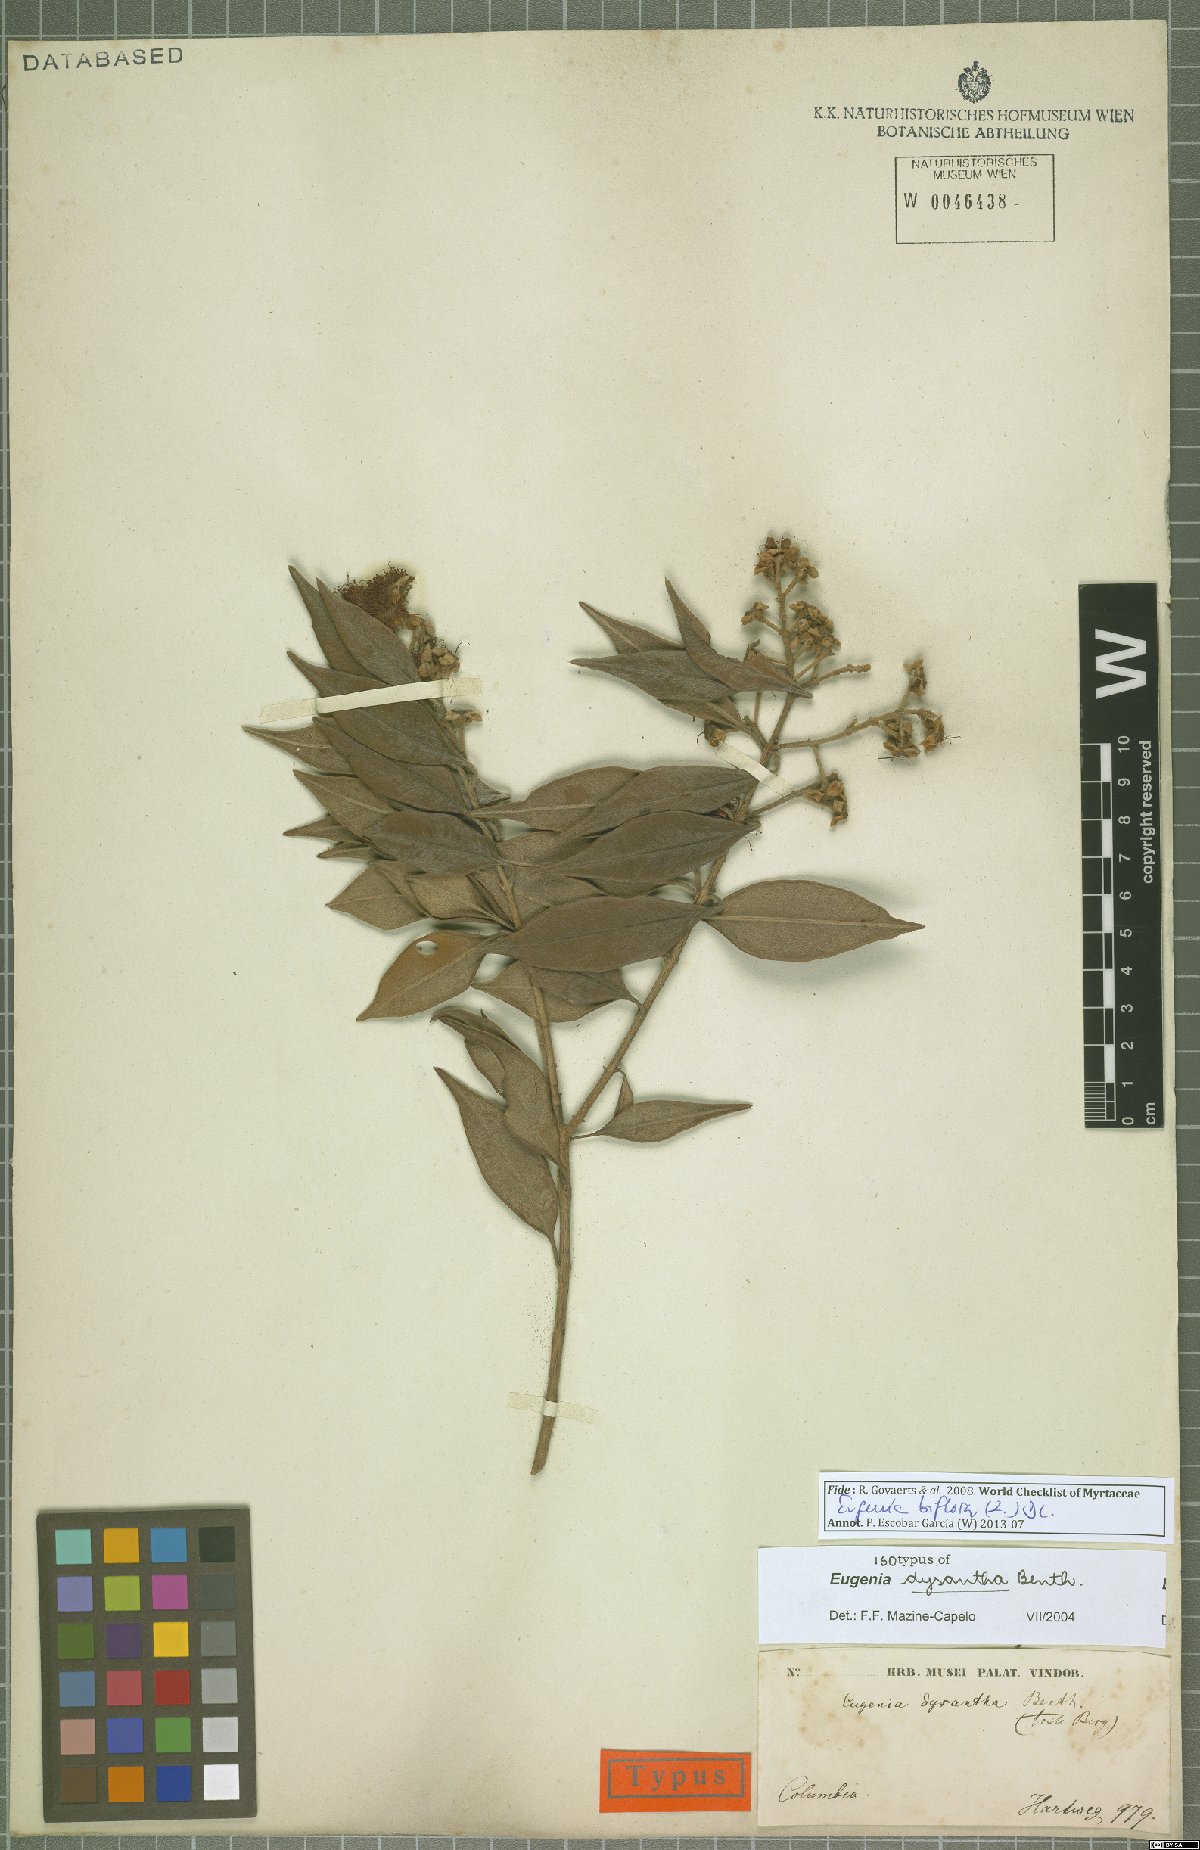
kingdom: Plantae
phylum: Tracheophyta
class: Magnoliopsida
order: Myrtales
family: Myrtaceae
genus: Eugenia
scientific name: Eugenia biflora
